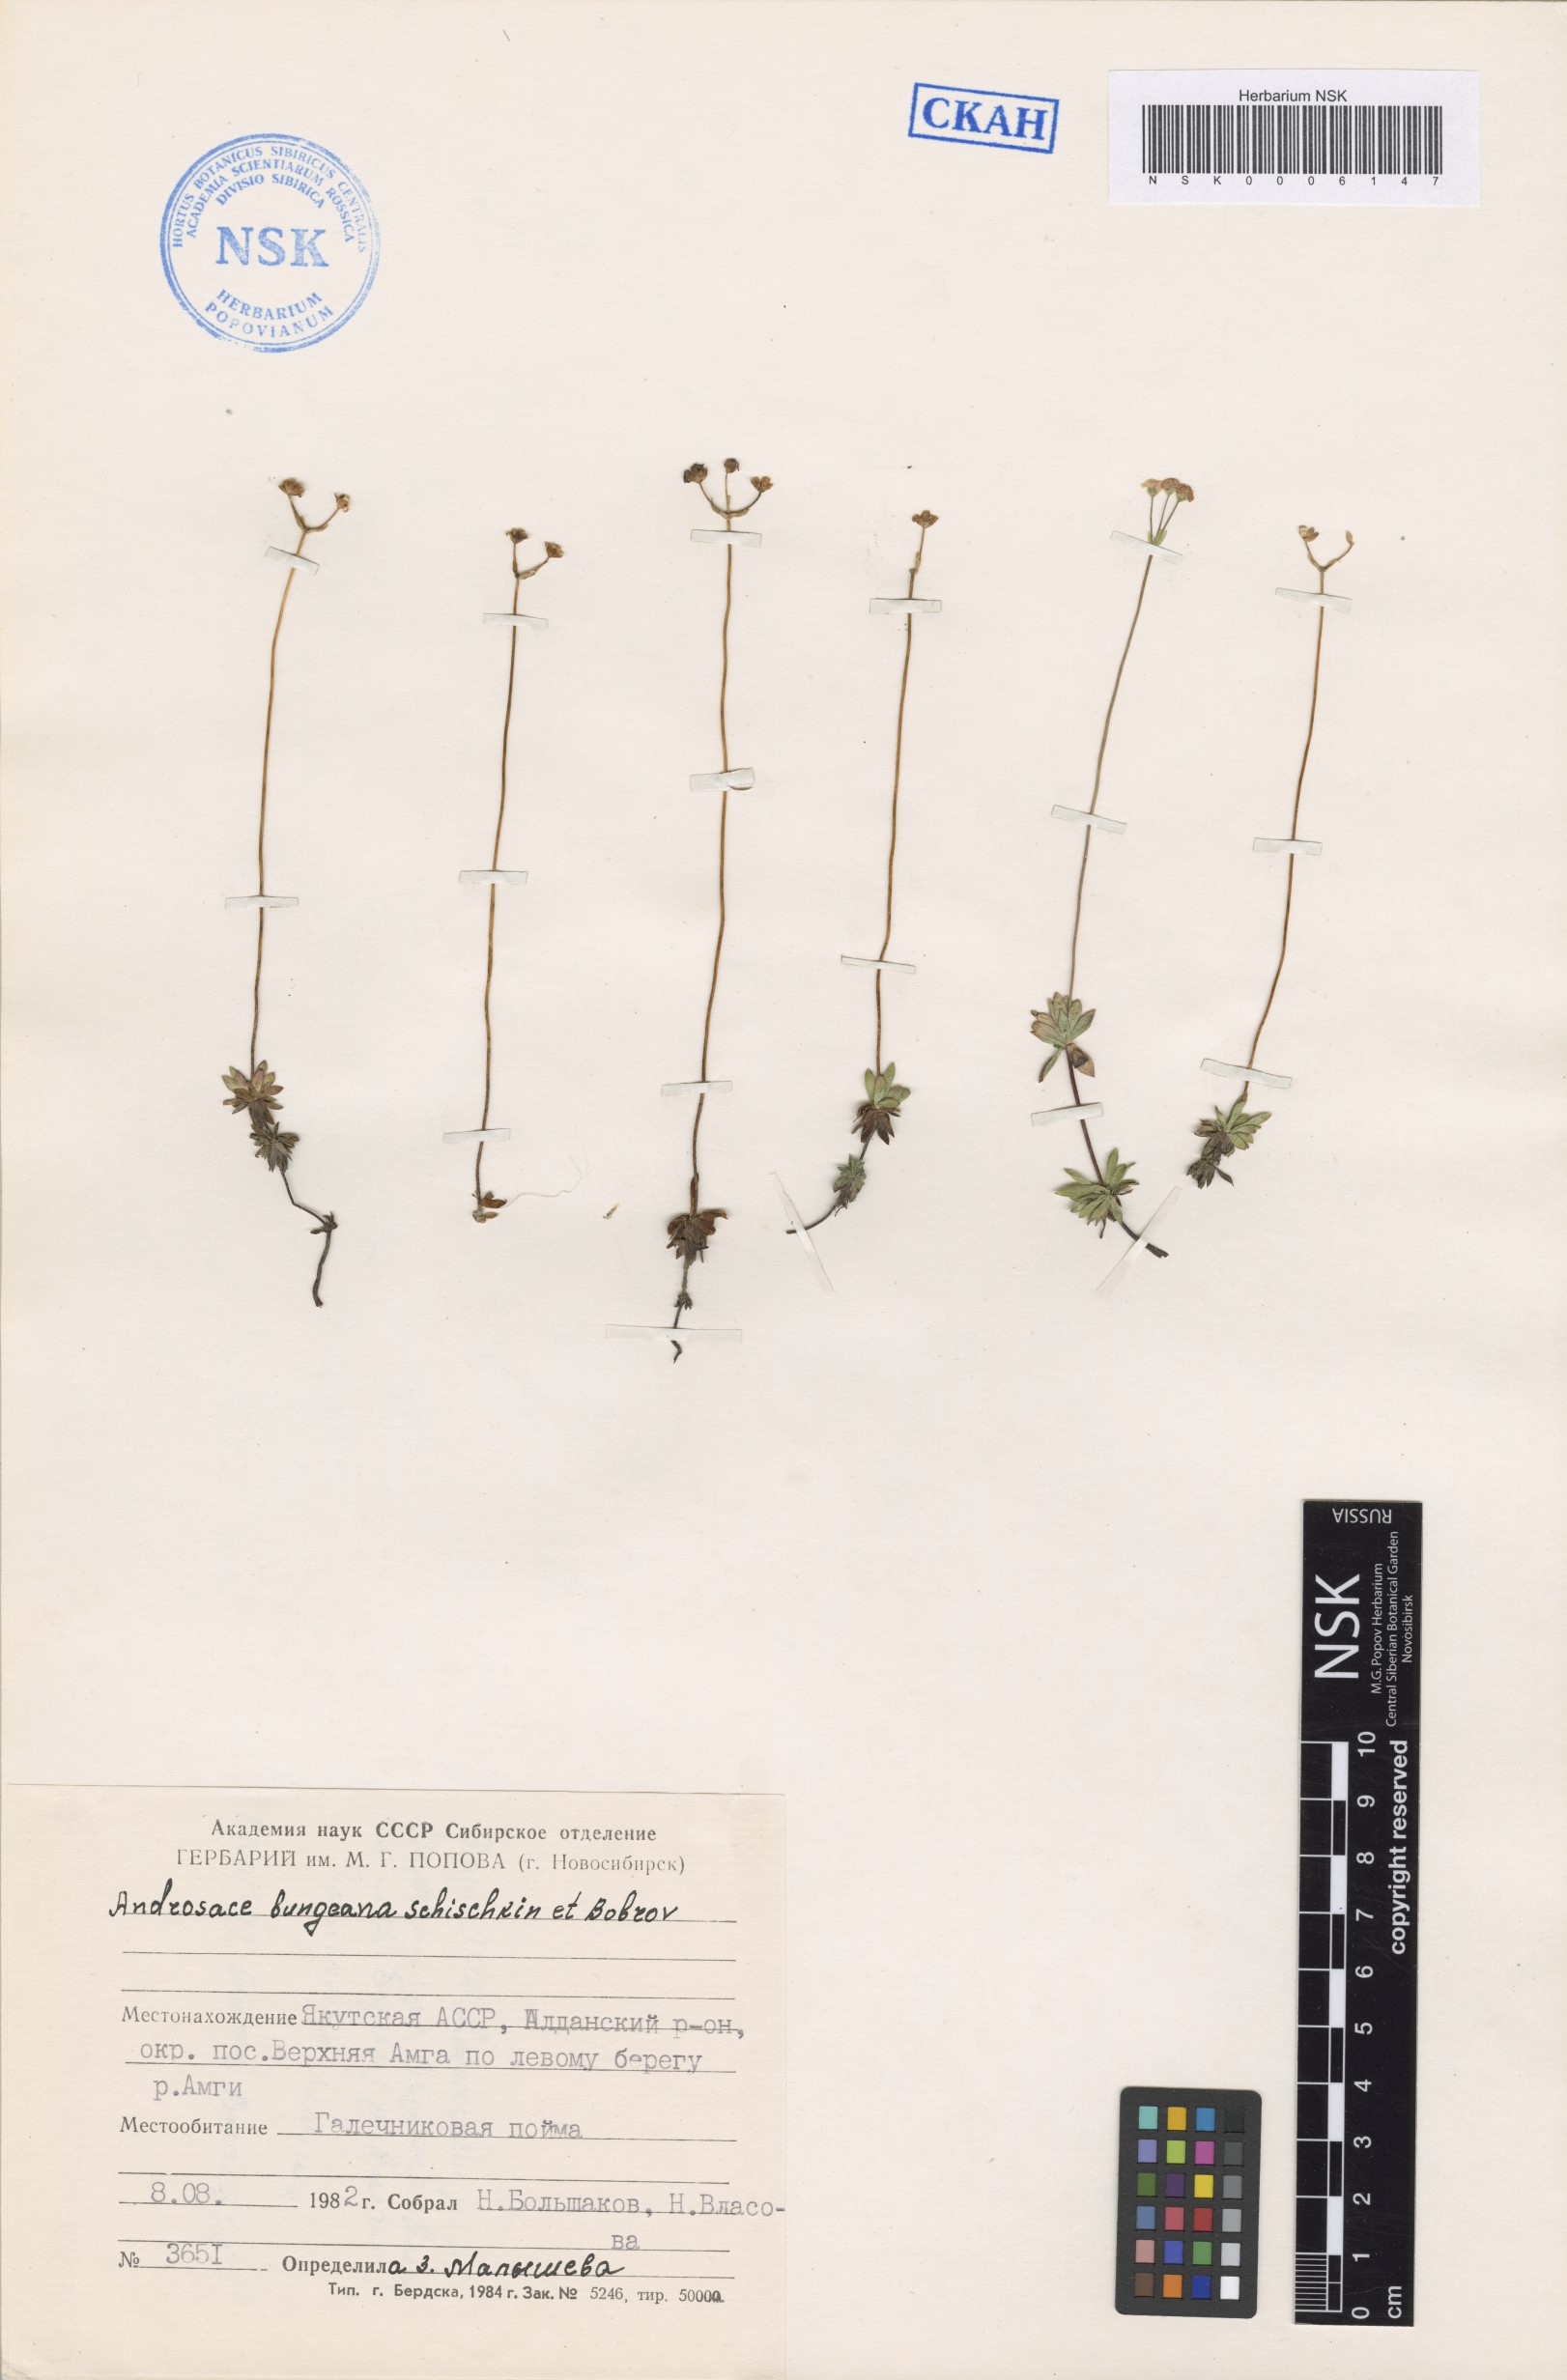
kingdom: Plantae
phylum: Tracheophyta
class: Magnoliopsida
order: Ericales
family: Primulaceae
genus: Androsace
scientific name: Androsace bungeana
